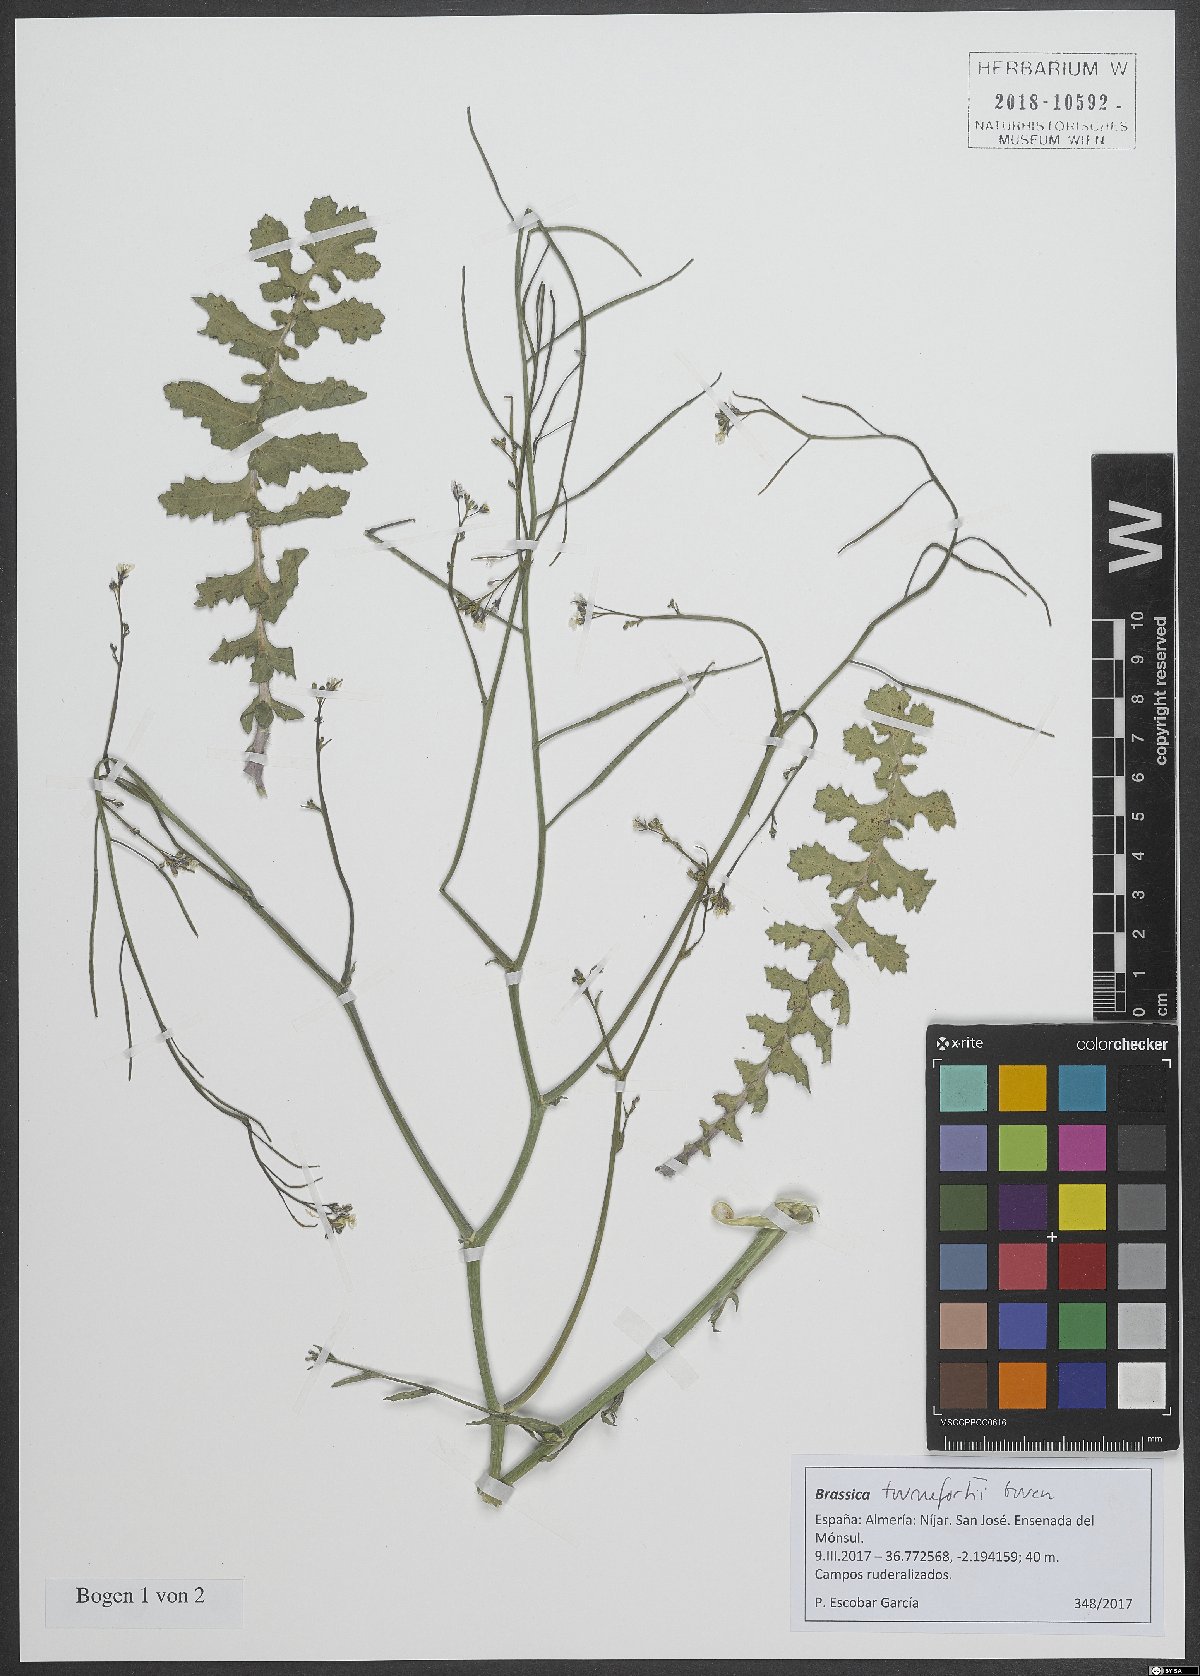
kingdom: Plantae
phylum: Tracheophyta
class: Magnoliopsida
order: Brassicales
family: Brassicaceae
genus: Brassica
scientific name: Brassica tournefortii
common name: Pale cabbage
